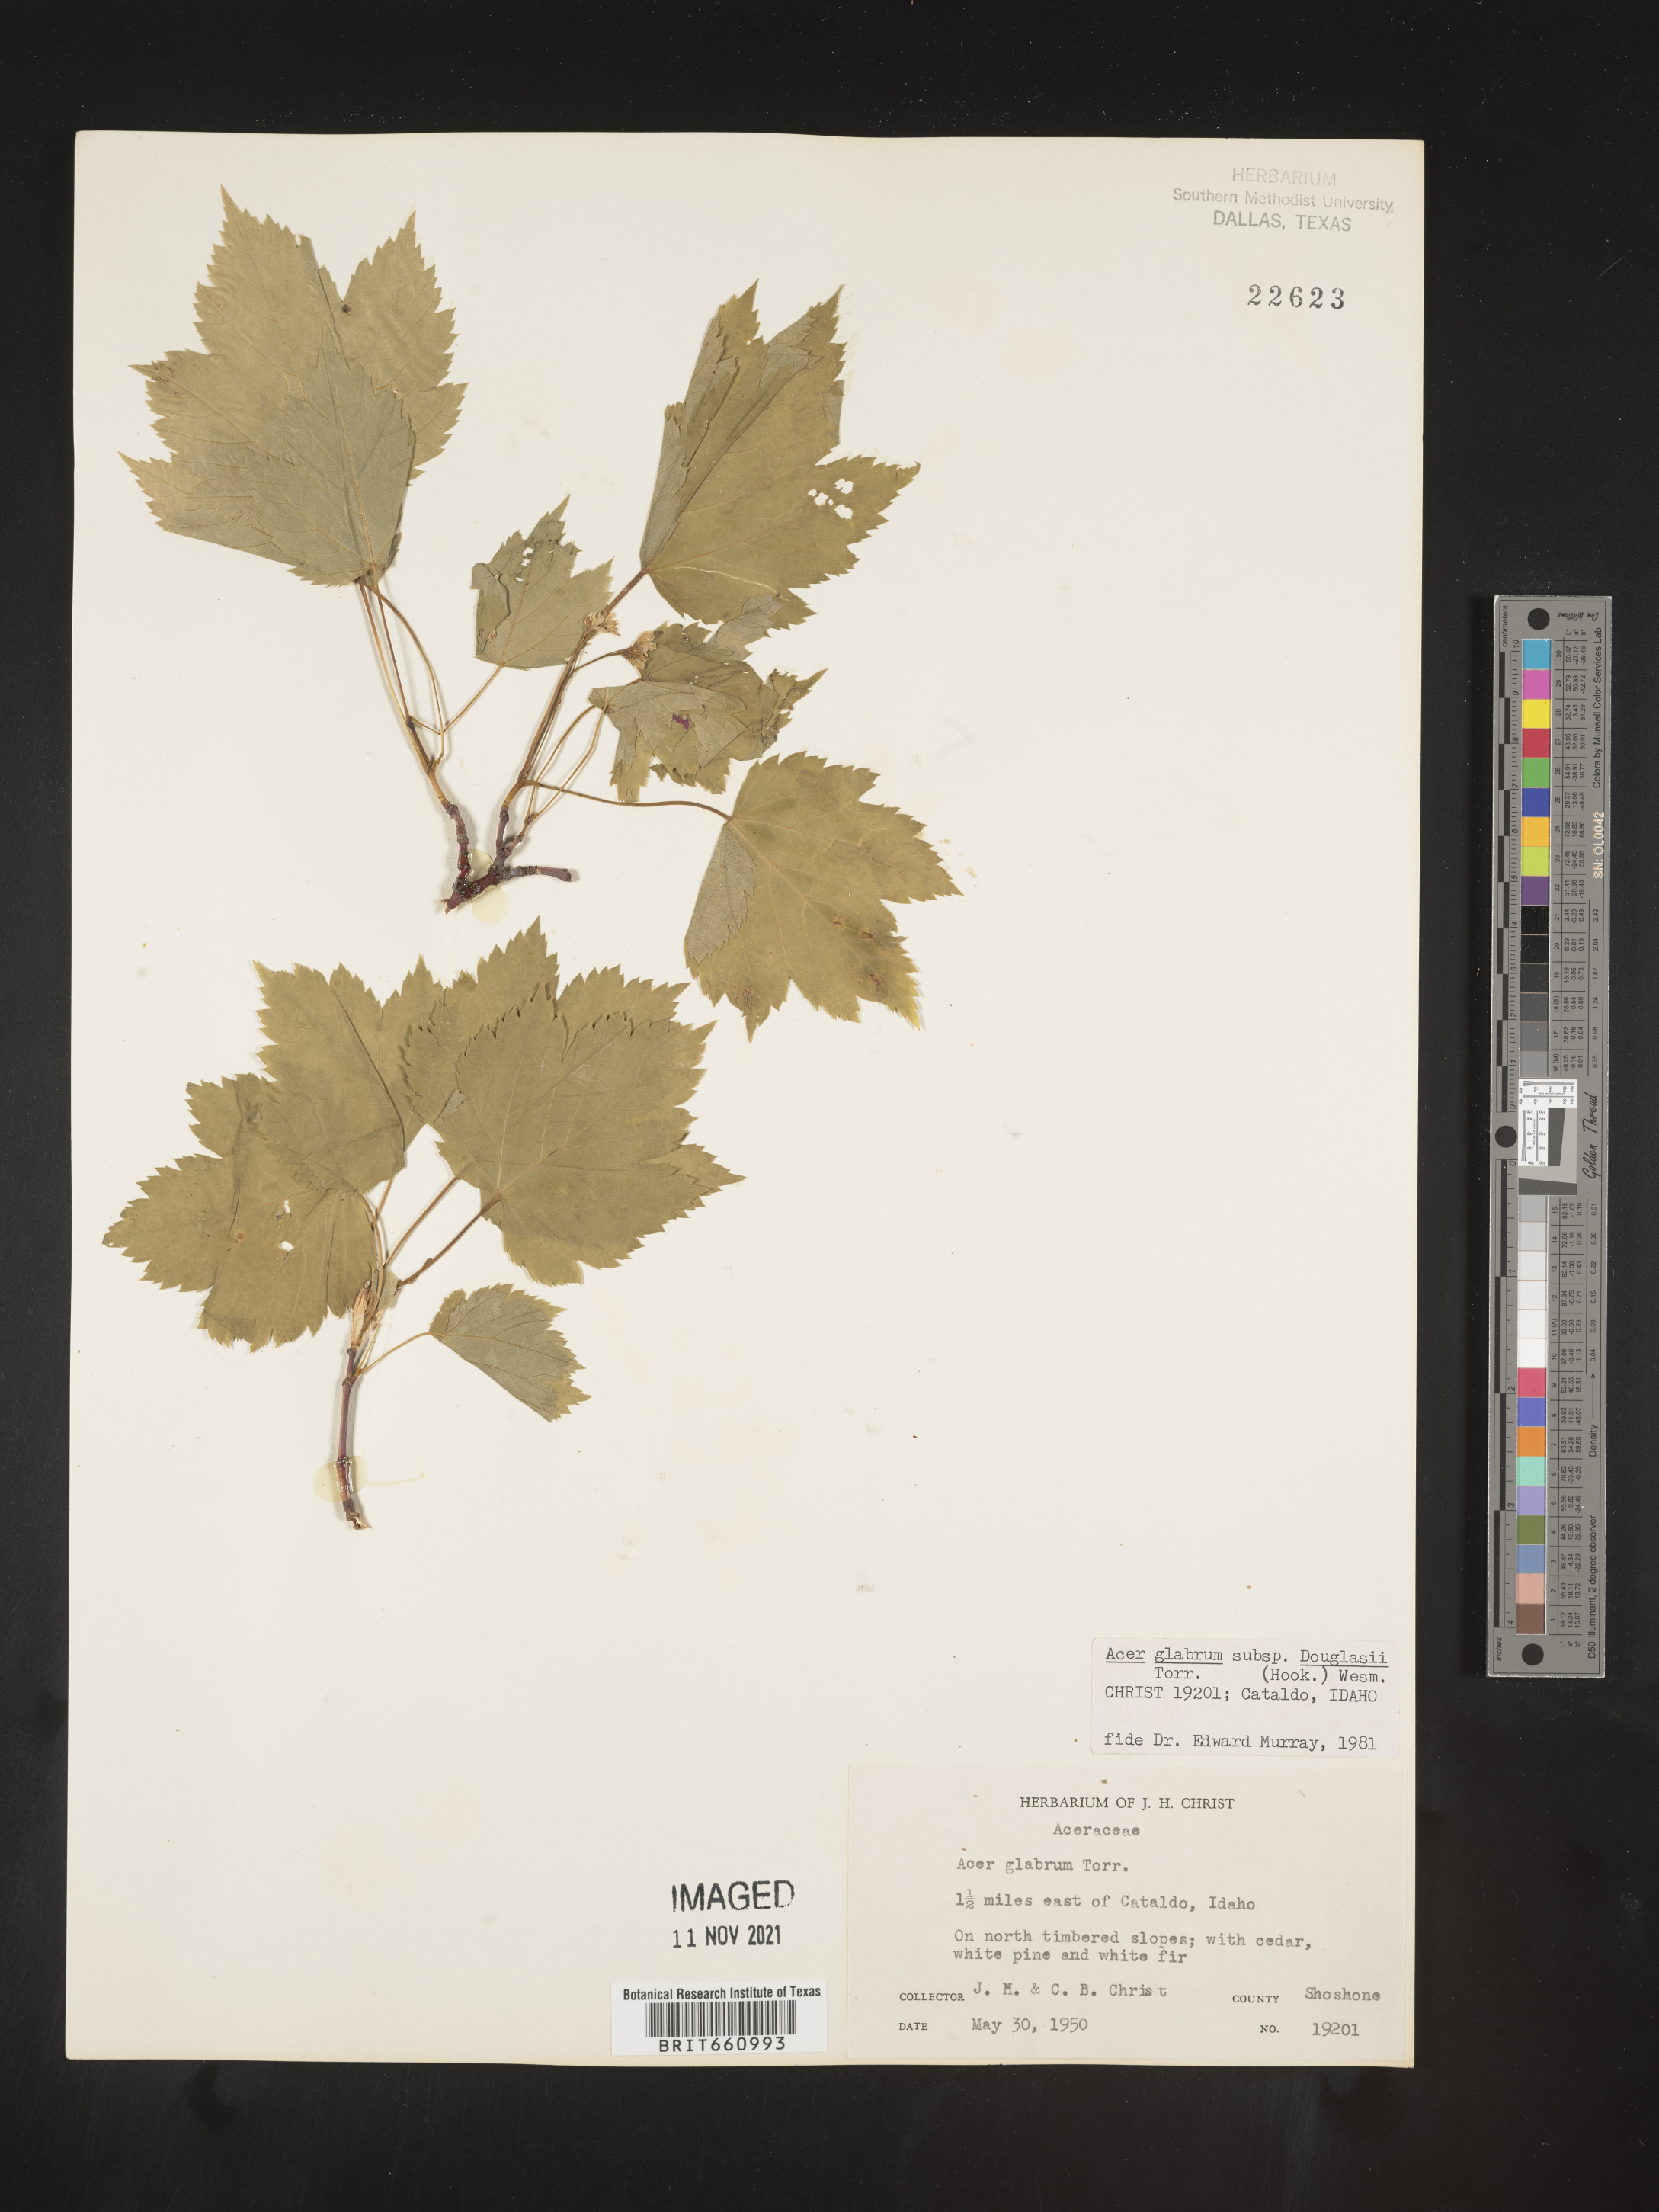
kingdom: Plantae
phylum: Tracheophyta
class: Magnoliopsida
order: Sapindales
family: Sapindaceae
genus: Acer
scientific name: Acer glabrum
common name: Rocky mountain maple
